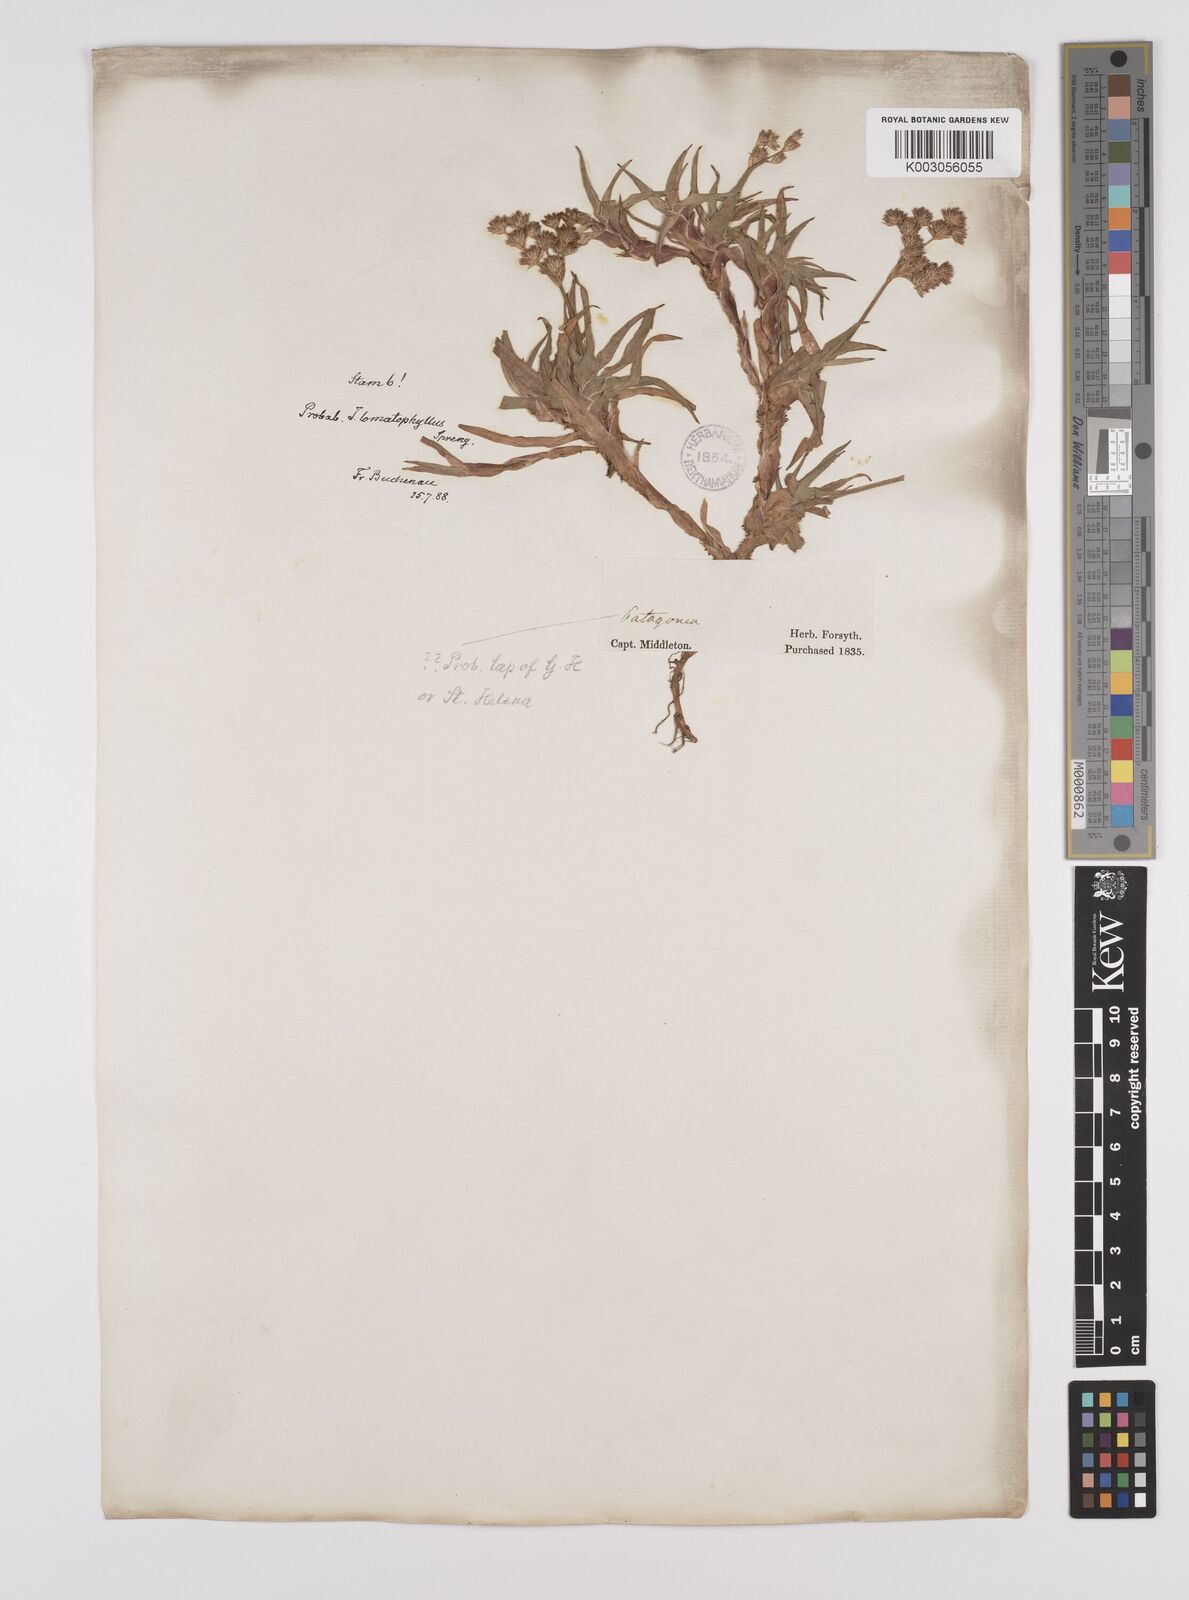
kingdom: Plantae
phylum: Tracheophyta
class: Liliopsida
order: Poales
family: Juncaceae
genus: Juncus
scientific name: Juncus lomatophyllus
